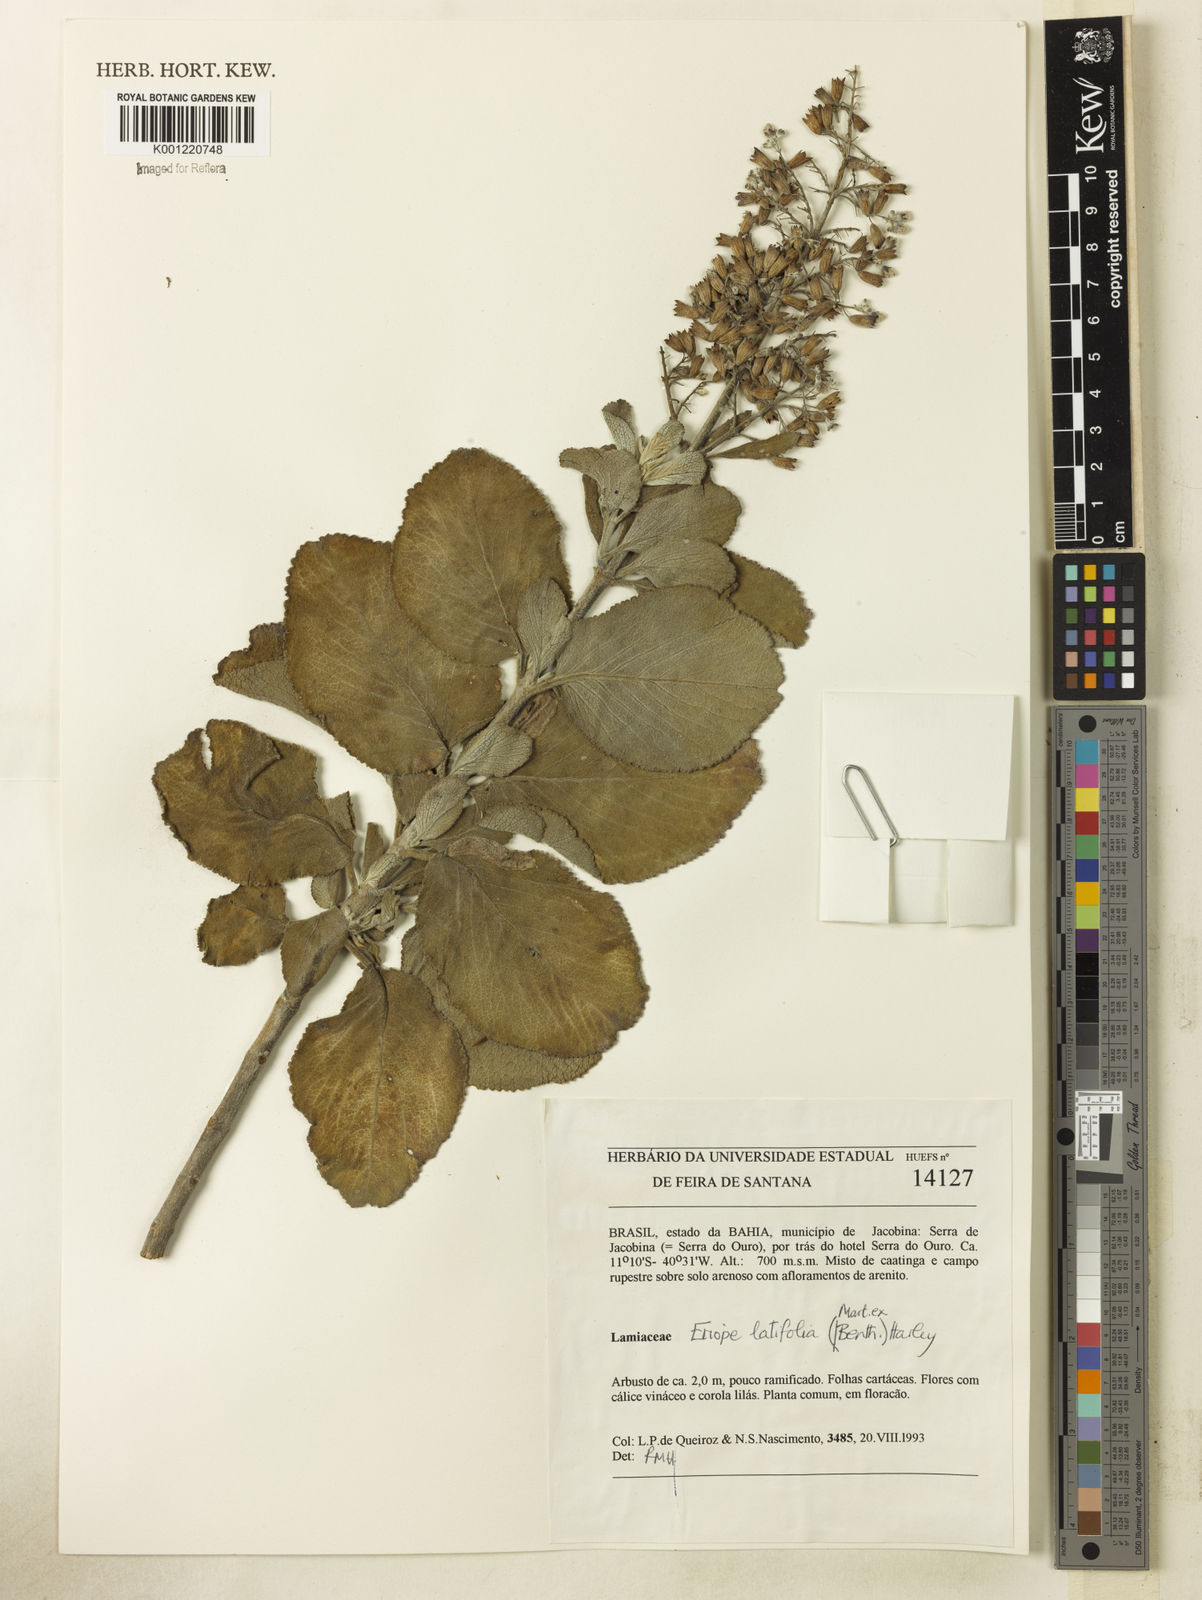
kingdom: Plantae
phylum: Tracheophyta
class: Magnoliopsida
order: Lamiales
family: Lamiaceae
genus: Eriope
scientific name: Eriope latifolia
